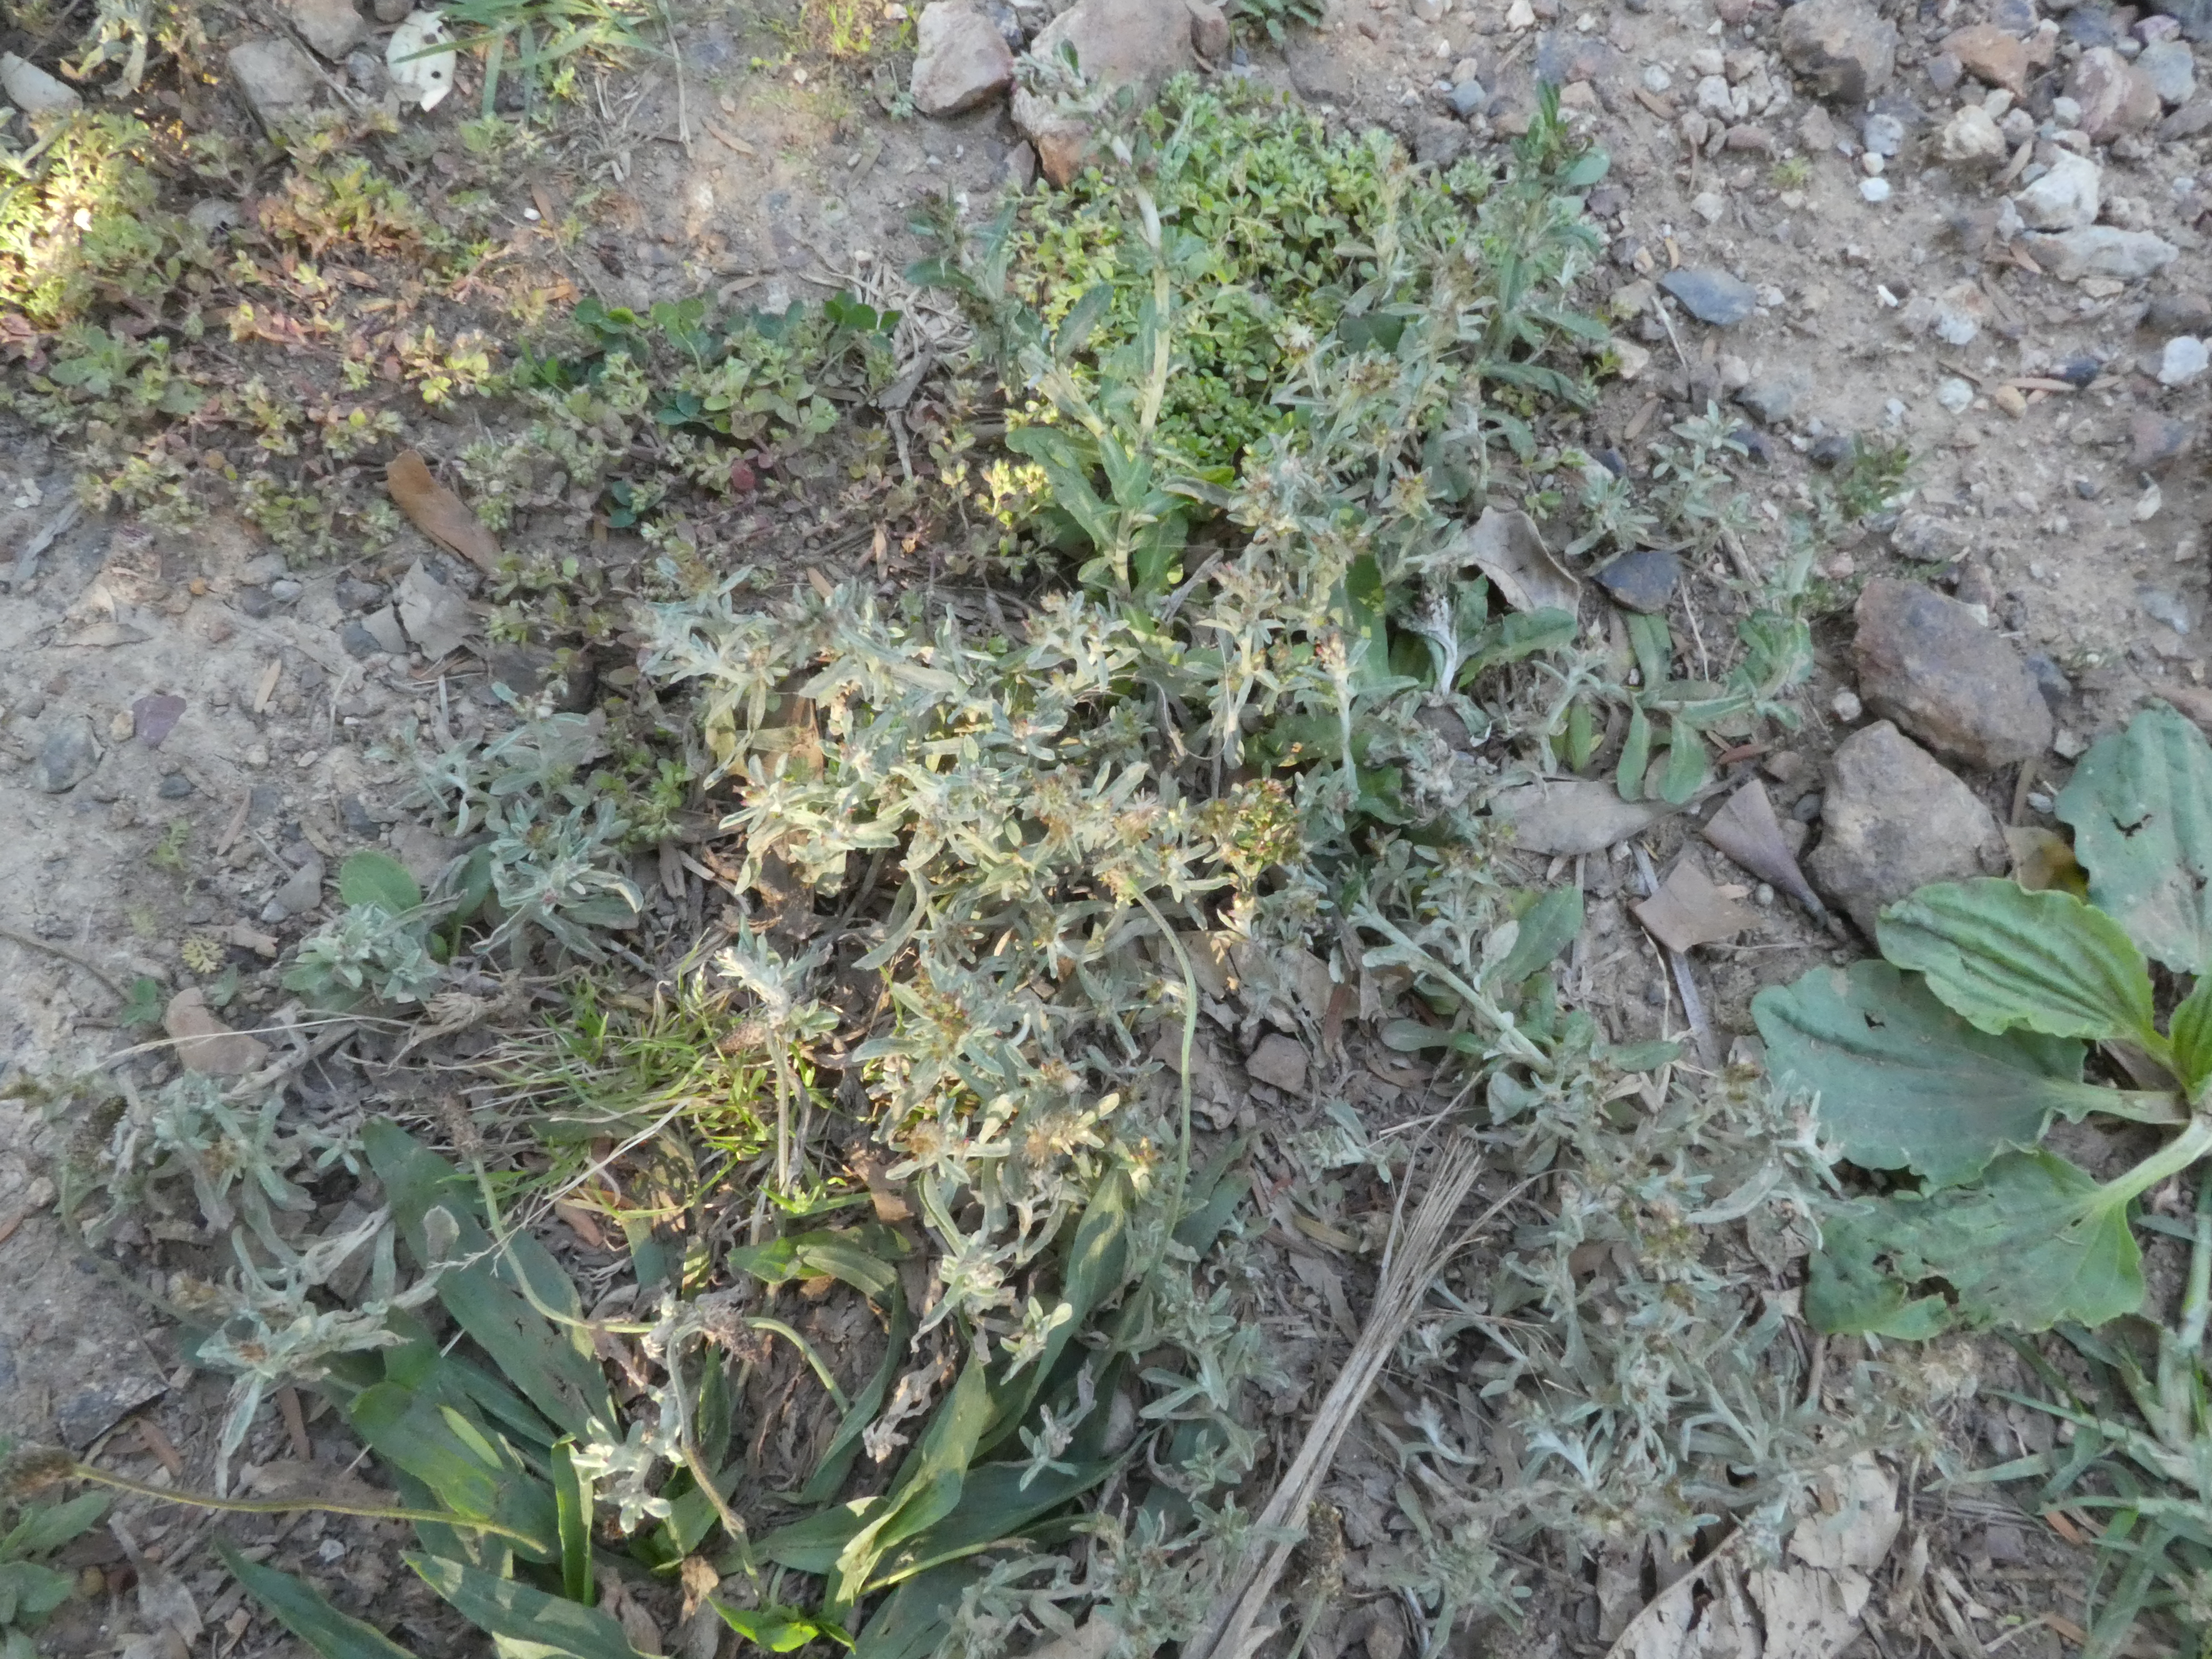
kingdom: Plantae
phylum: Tracheophyta
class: Magnoliopsida
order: Asterales
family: Asteraceae
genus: Gamochaeta
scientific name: Gamochaeta antillana
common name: Delicate everlasting
